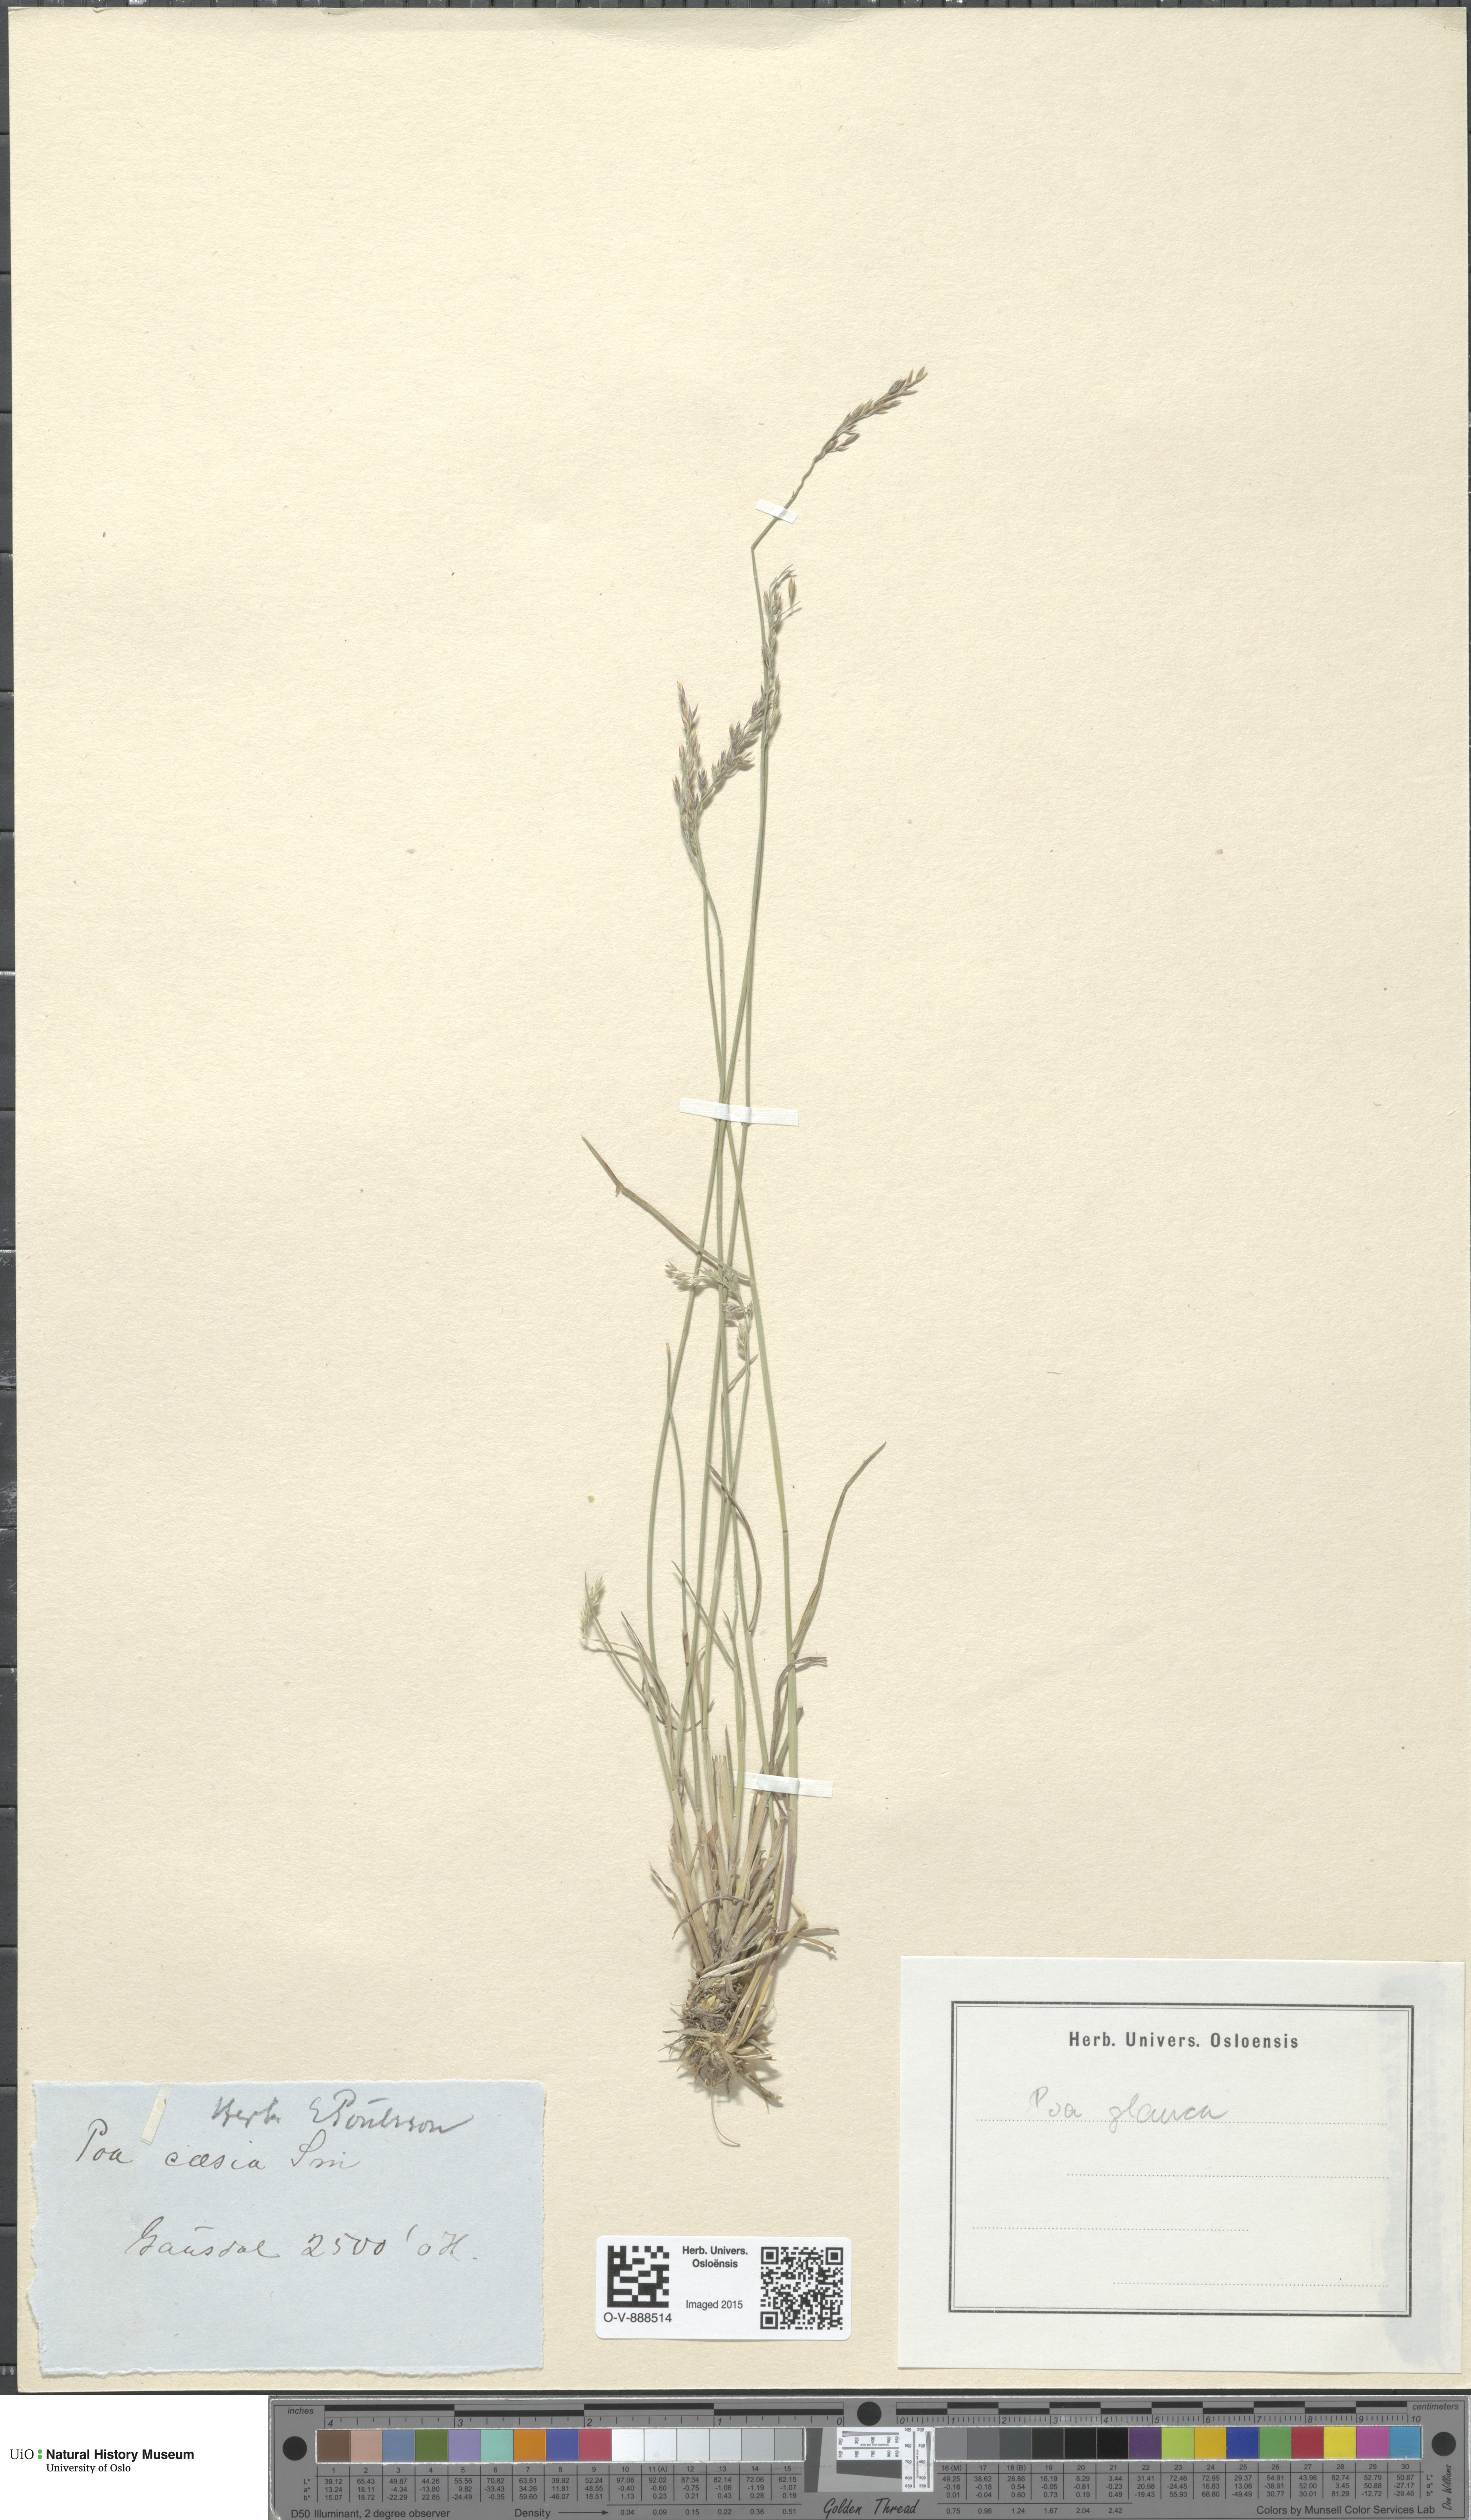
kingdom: Plantae
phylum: Tracheophyta
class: Liliopsida
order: Poales
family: Poaceae
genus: Poa
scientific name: Poa glauca
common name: Glaucous bluegrass
